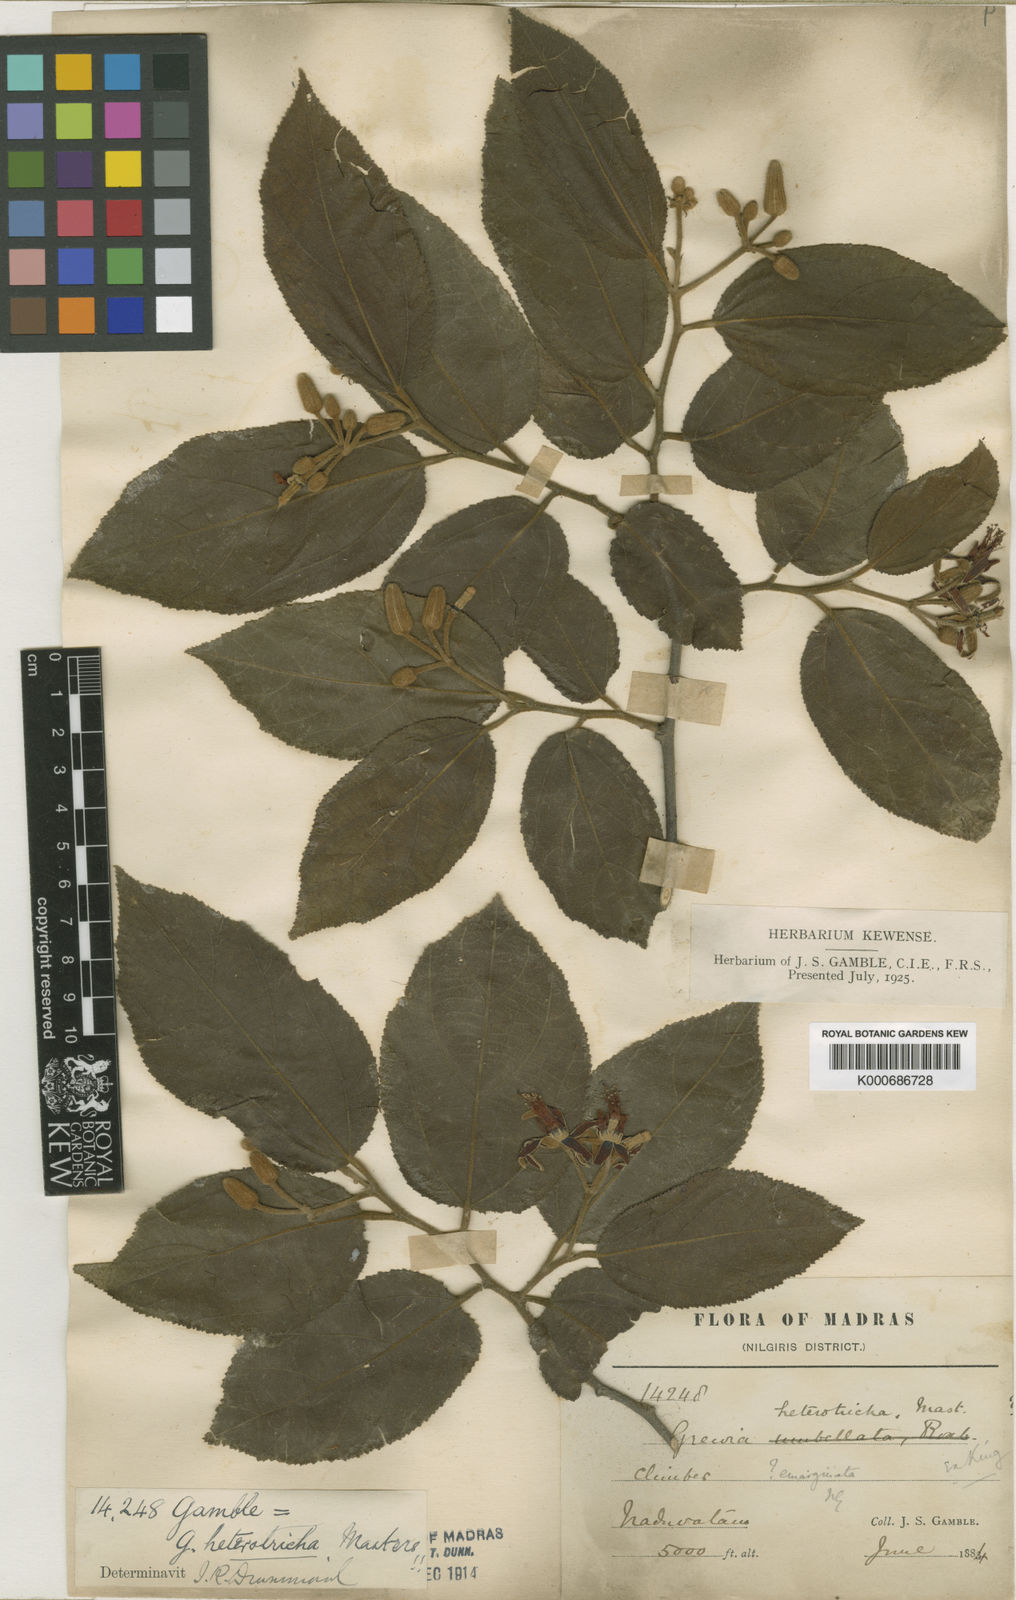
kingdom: Plantae
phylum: Tracheophyta
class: Magnoliopsida
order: Malvales
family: Malvaceae
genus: Grewia
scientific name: Grewia heterotricha
